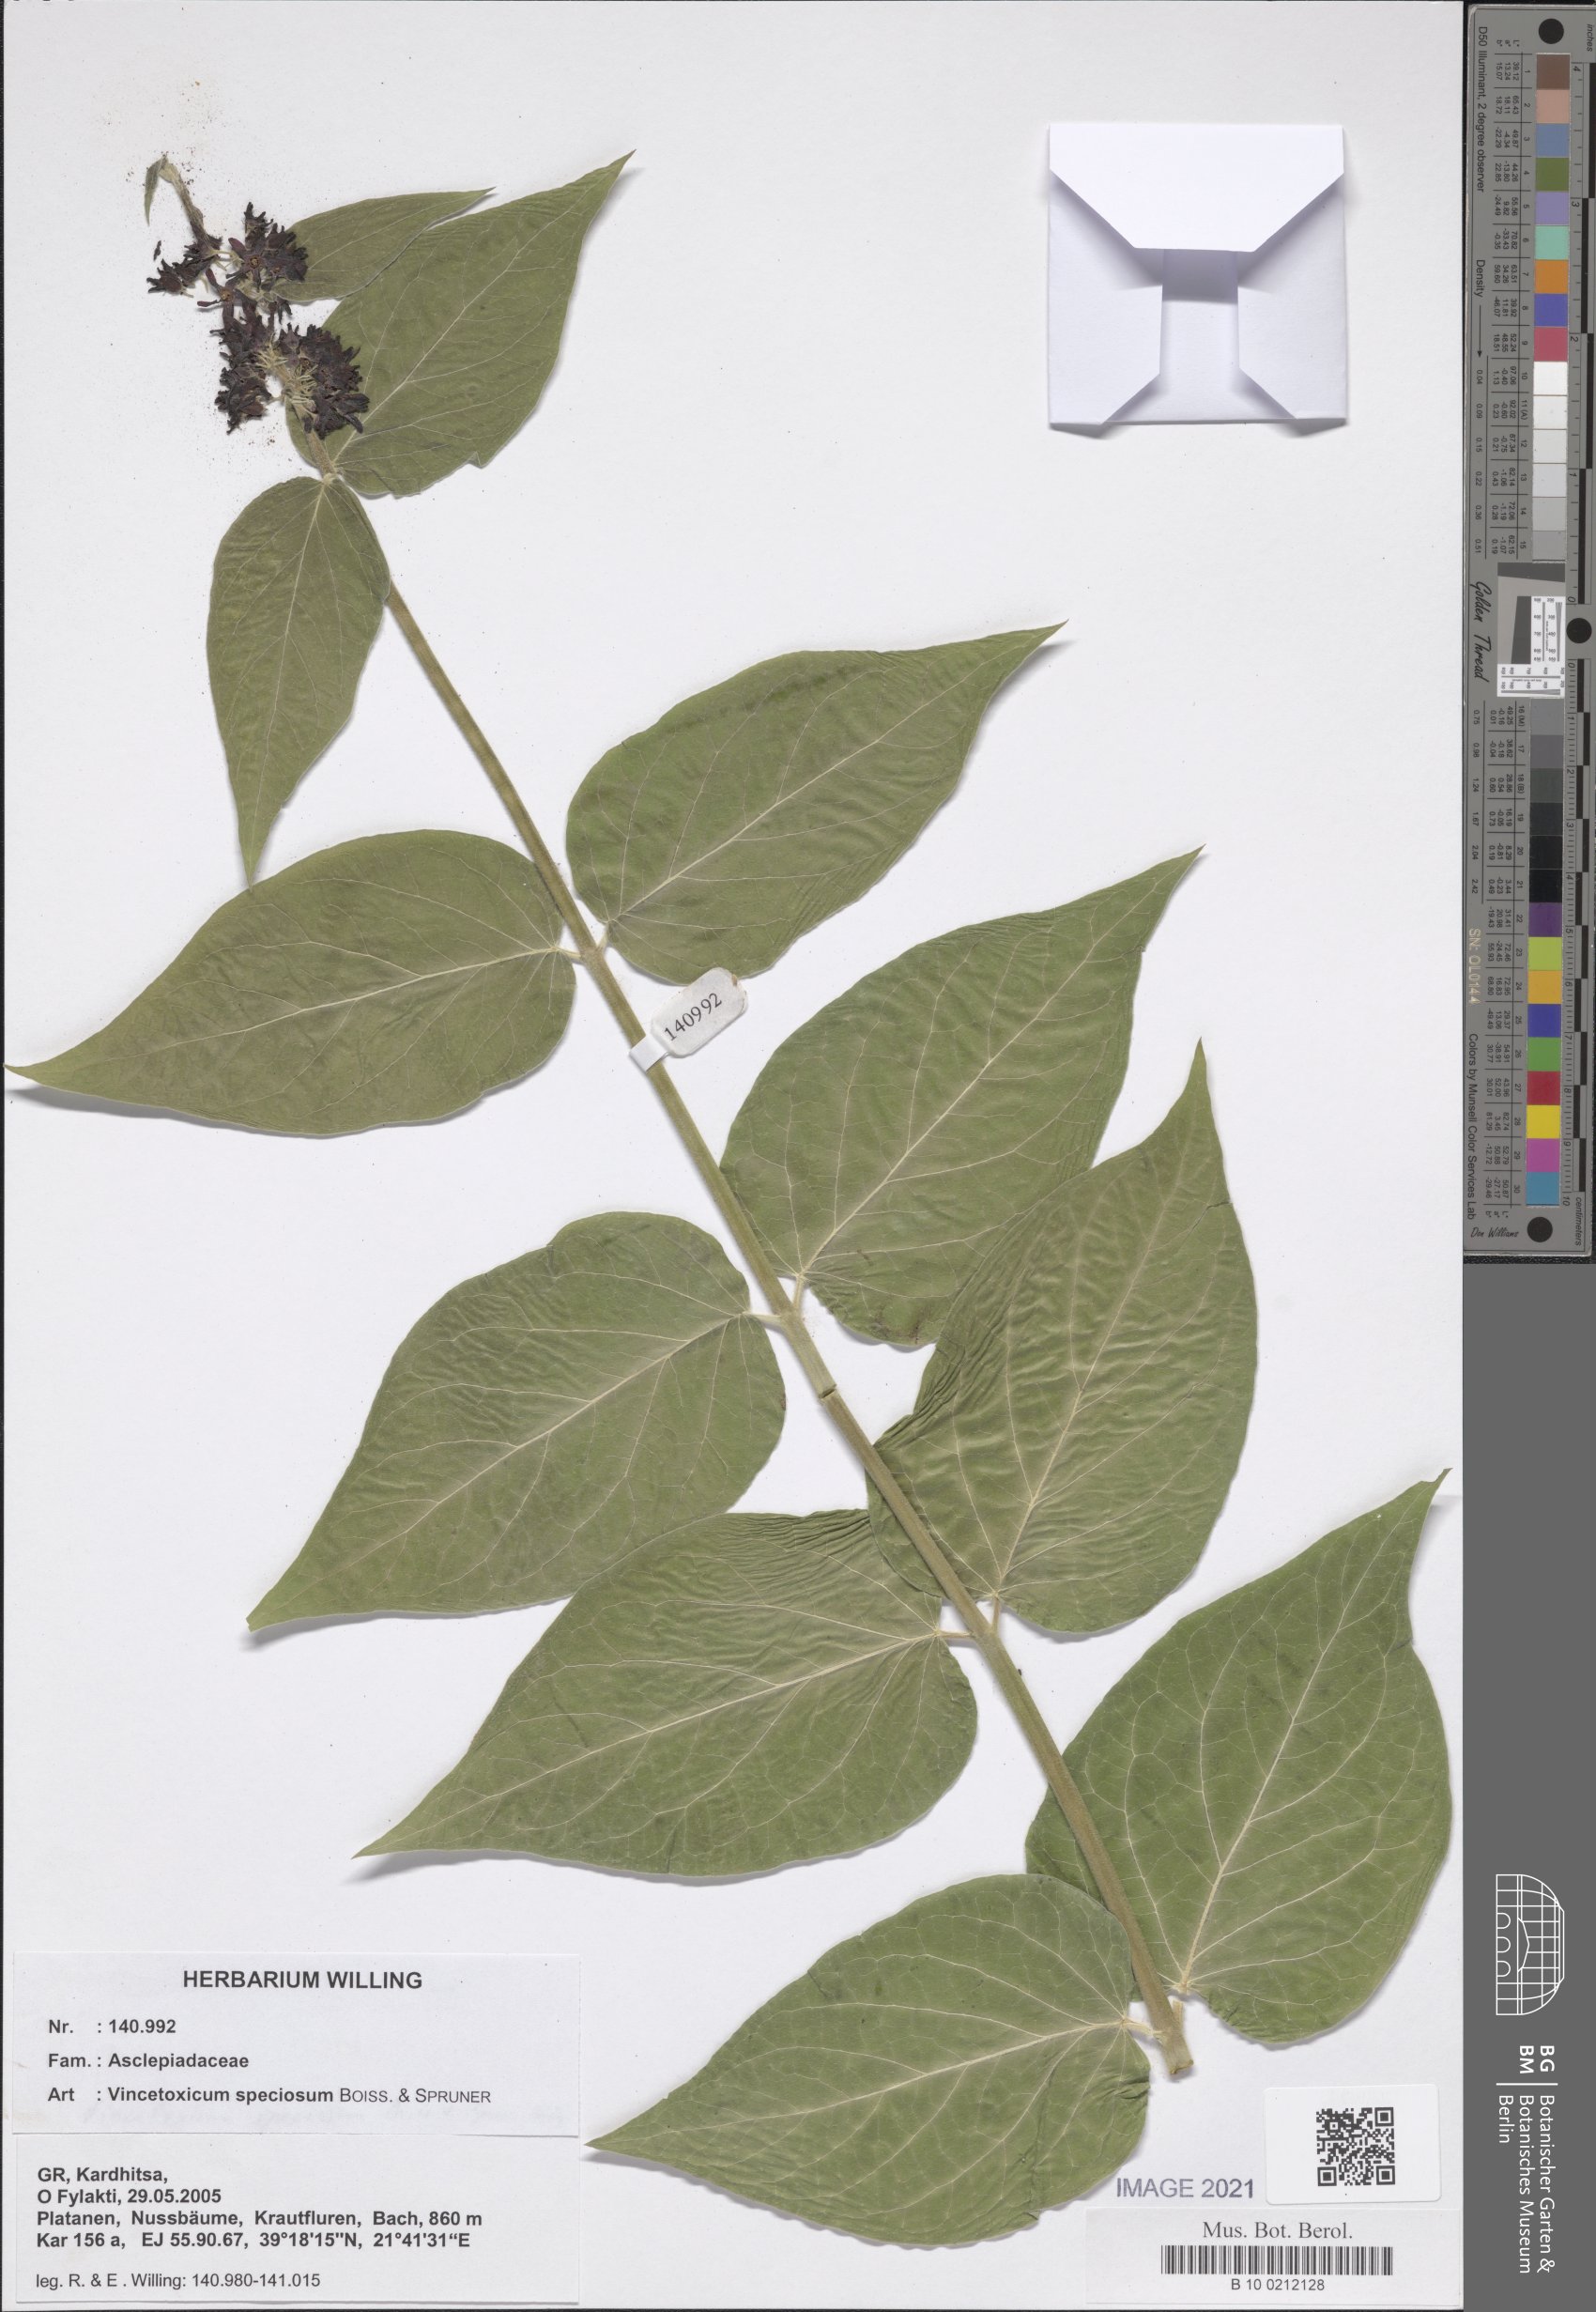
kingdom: Plantae
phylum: Tracheophyta
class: Magnoliopsida
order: Gentianales
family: Apocynaceae
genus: Vincetoxicum
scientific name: Vincetoxicum speciosum
